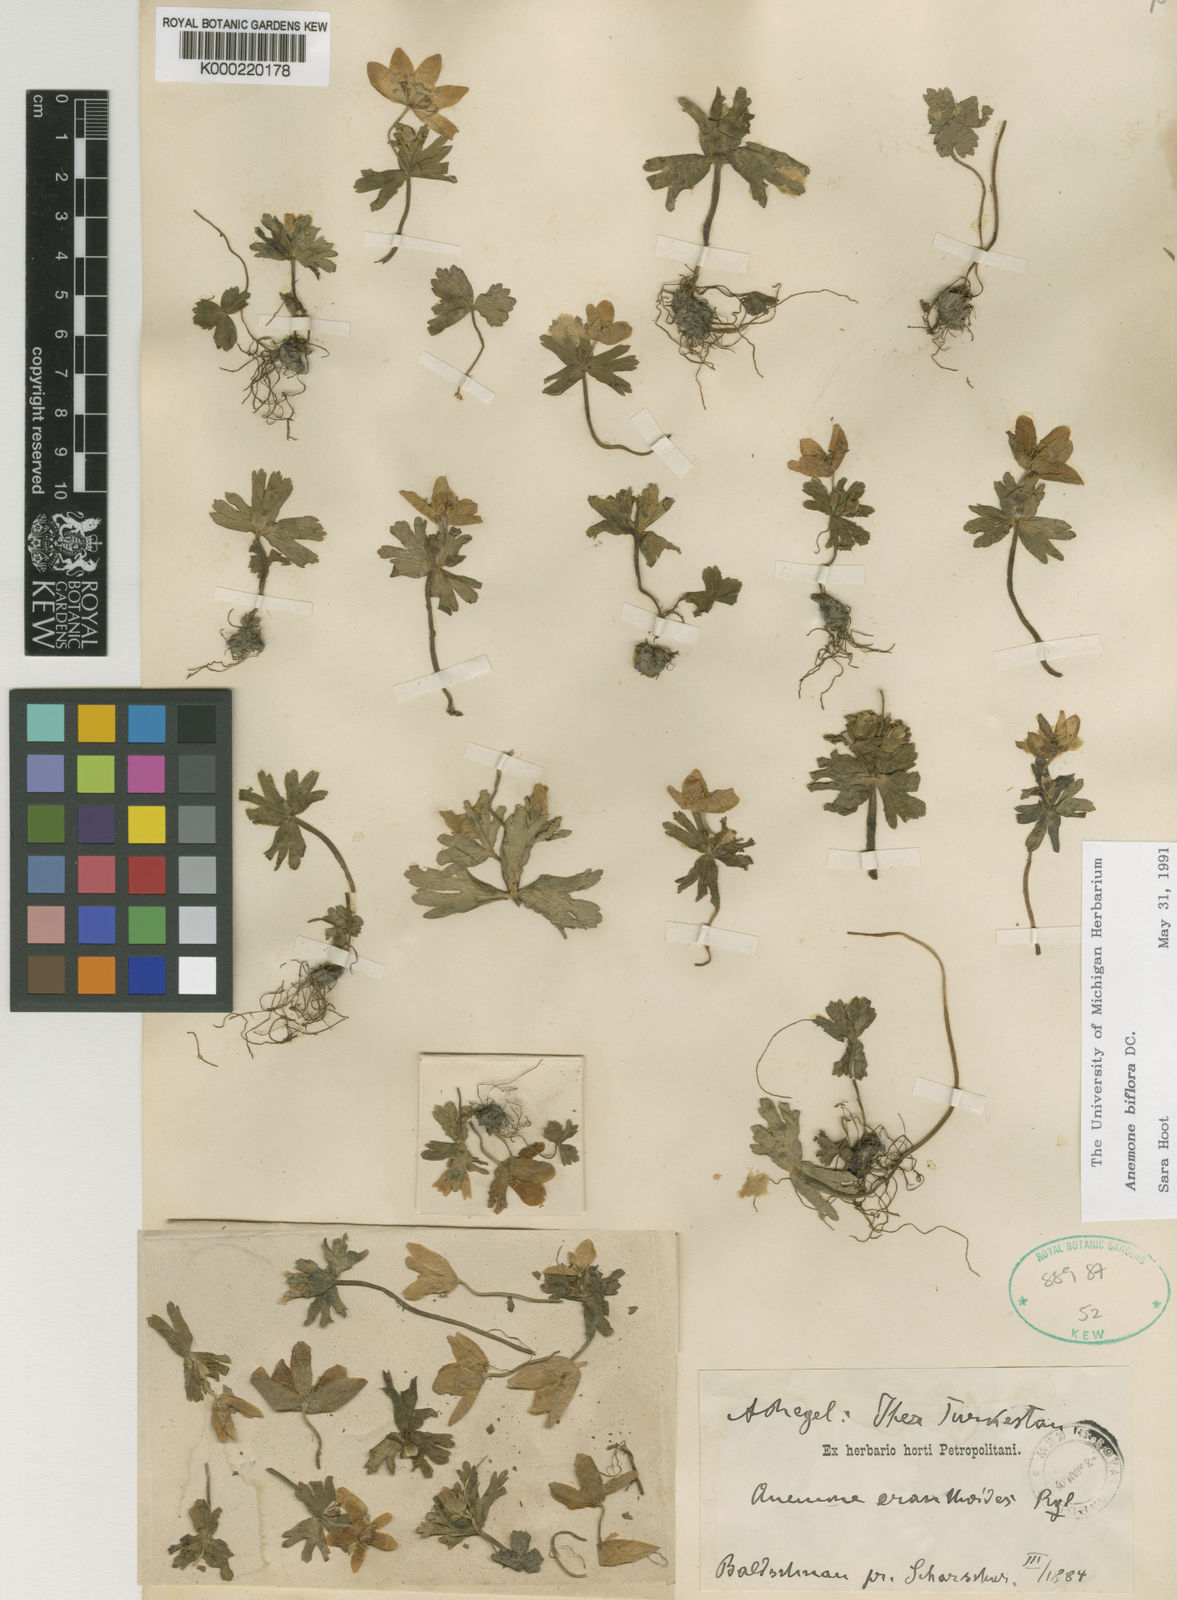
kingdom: Plantae
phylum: Tracheophyta
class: Magnoliopsida
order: Ranunculales
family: Ranunculaceae
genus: Anemone
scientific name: Anemone multifida
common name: Bird's-foot anemone
